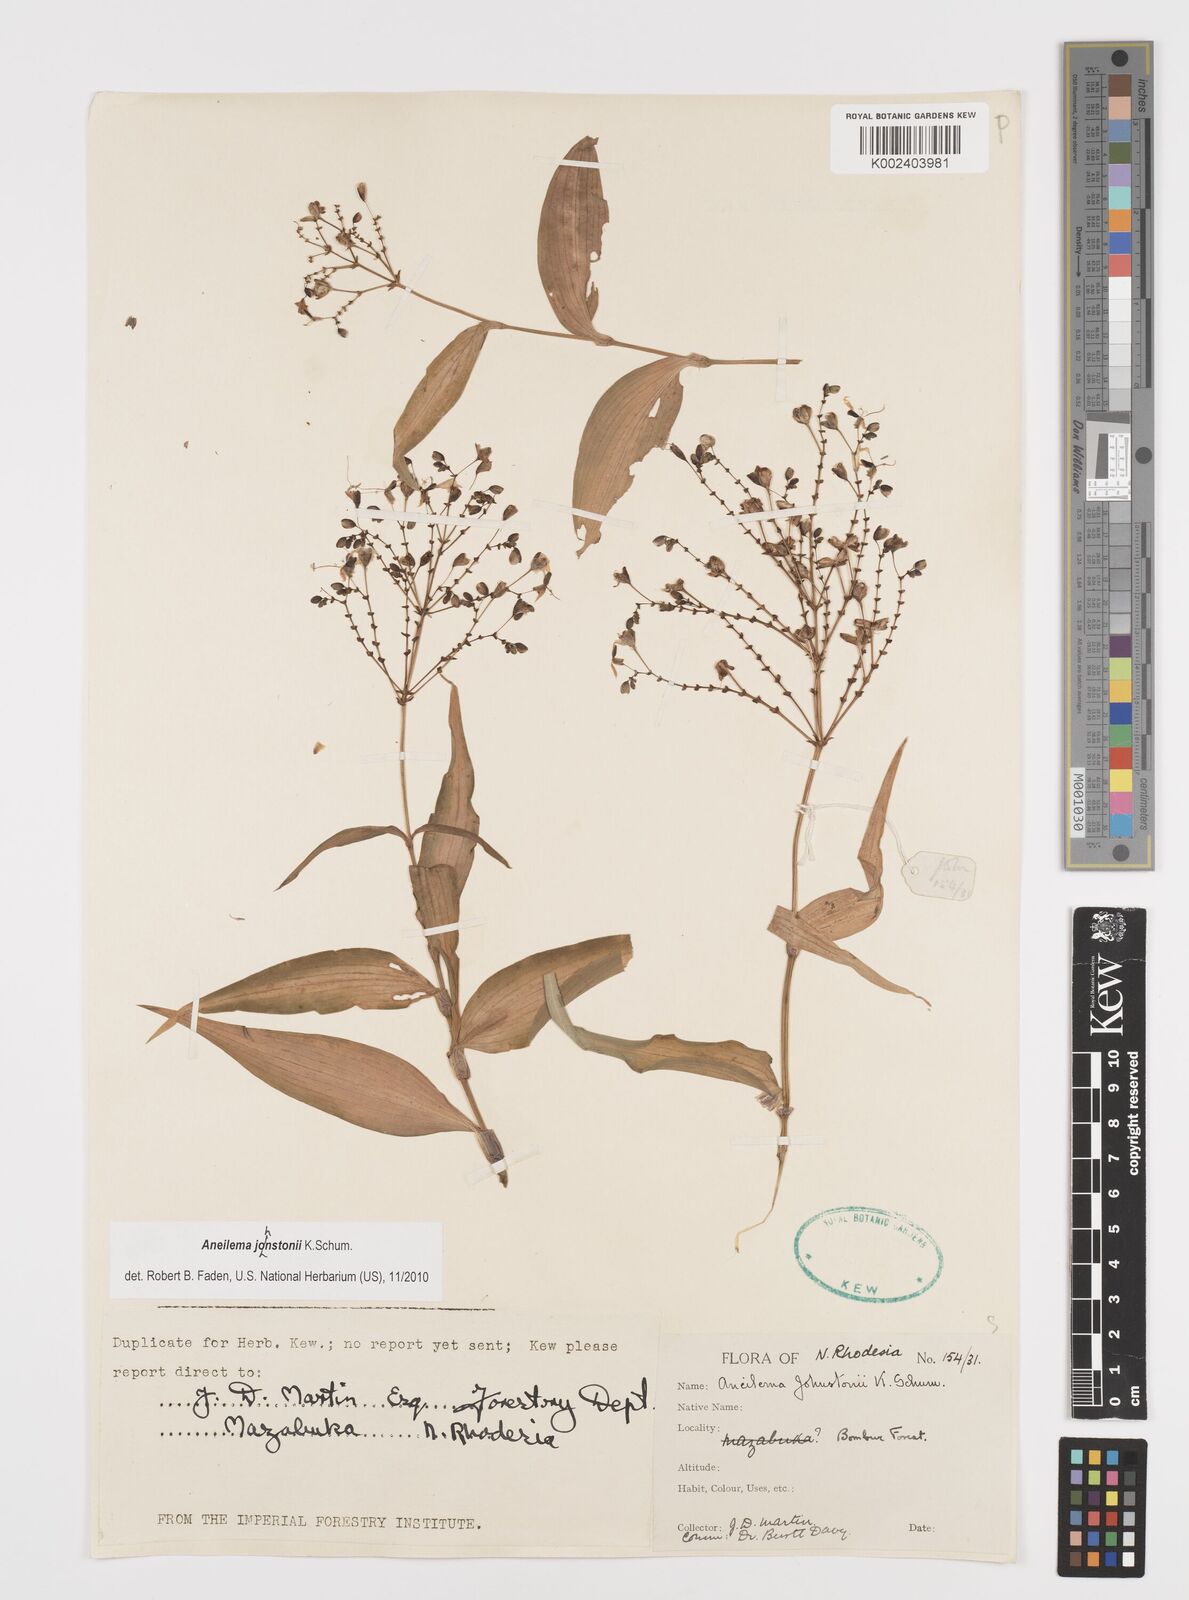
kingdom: Plantae
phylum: Tracheophyta
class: Liliopsida
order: Commelinales
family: Commelinaceae
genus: Aneilema
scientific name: Aneilema johnstonii
